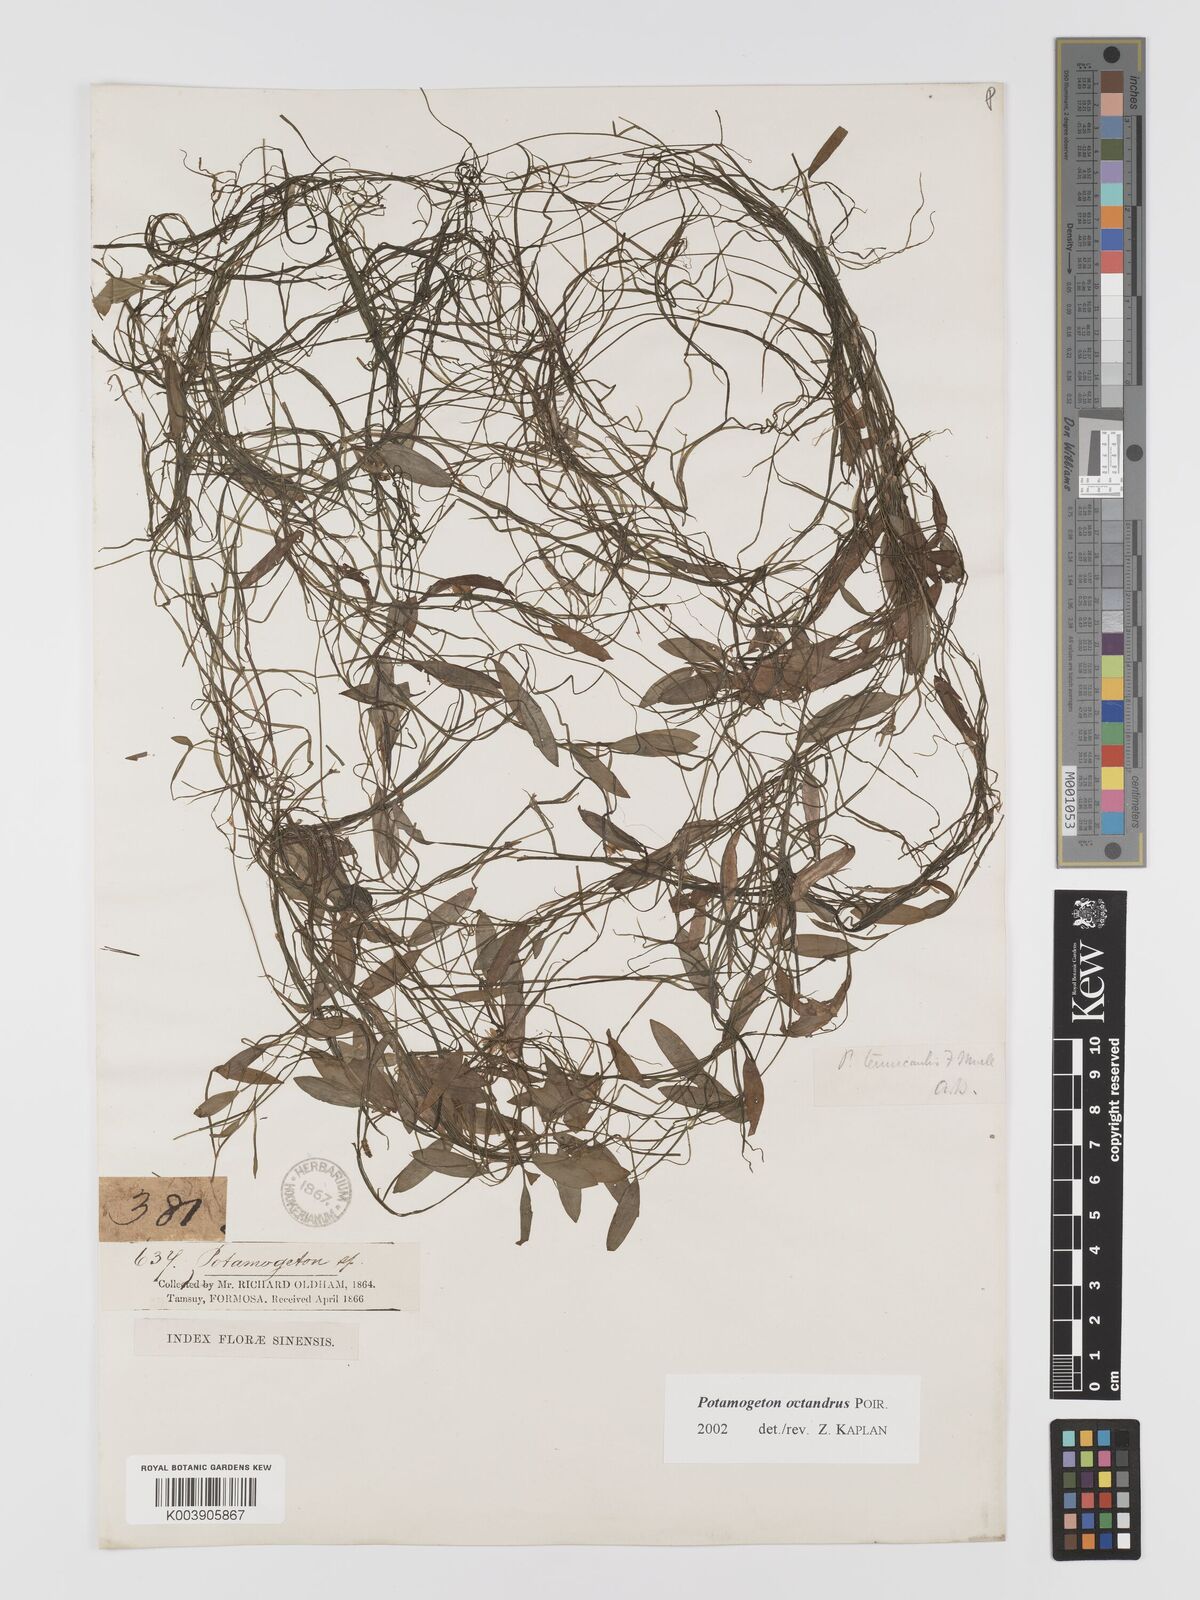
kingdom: Plantae
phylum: Tracheophyta
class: Liliopsida
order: Alismatales
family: Potamogetonaceae
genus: Potamogeton
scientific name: Potamogeton octandrus
